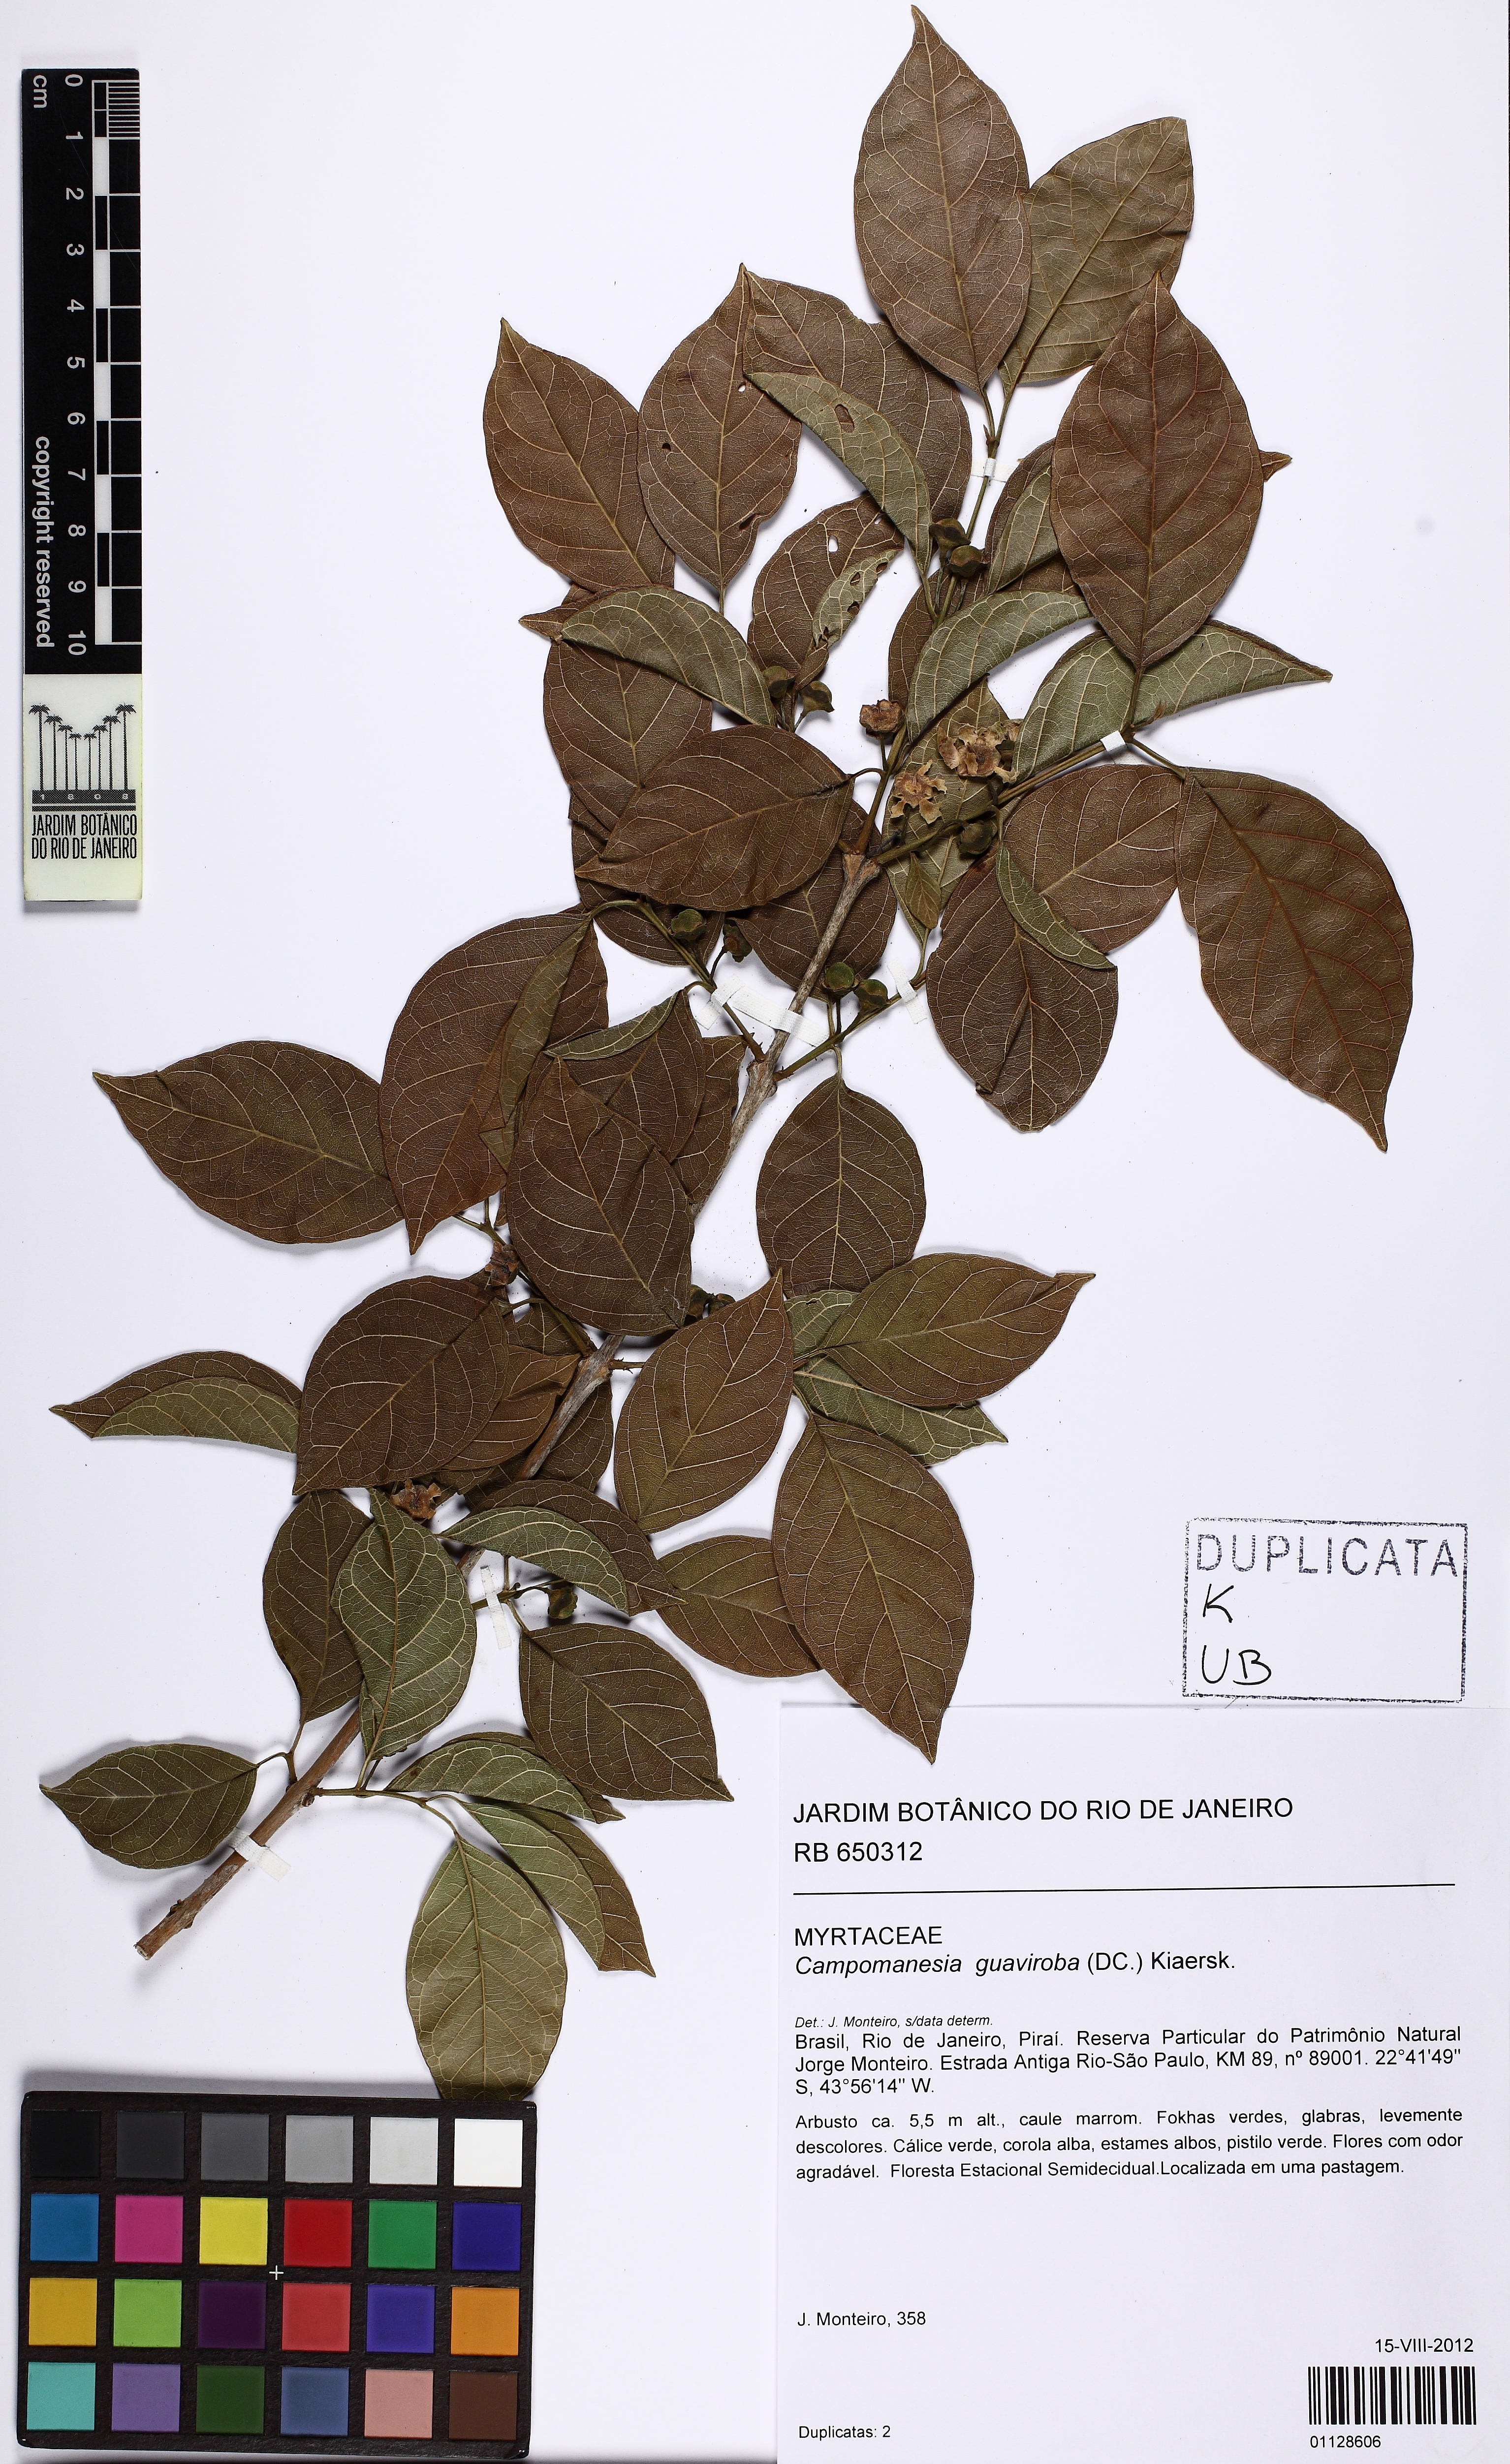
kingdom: Plantae
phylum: Tracheophyta
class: Magnoliopsida
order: Myrtales
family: Myrtaceae
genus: Campomanesia
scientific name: Campomanesia guaviroba
